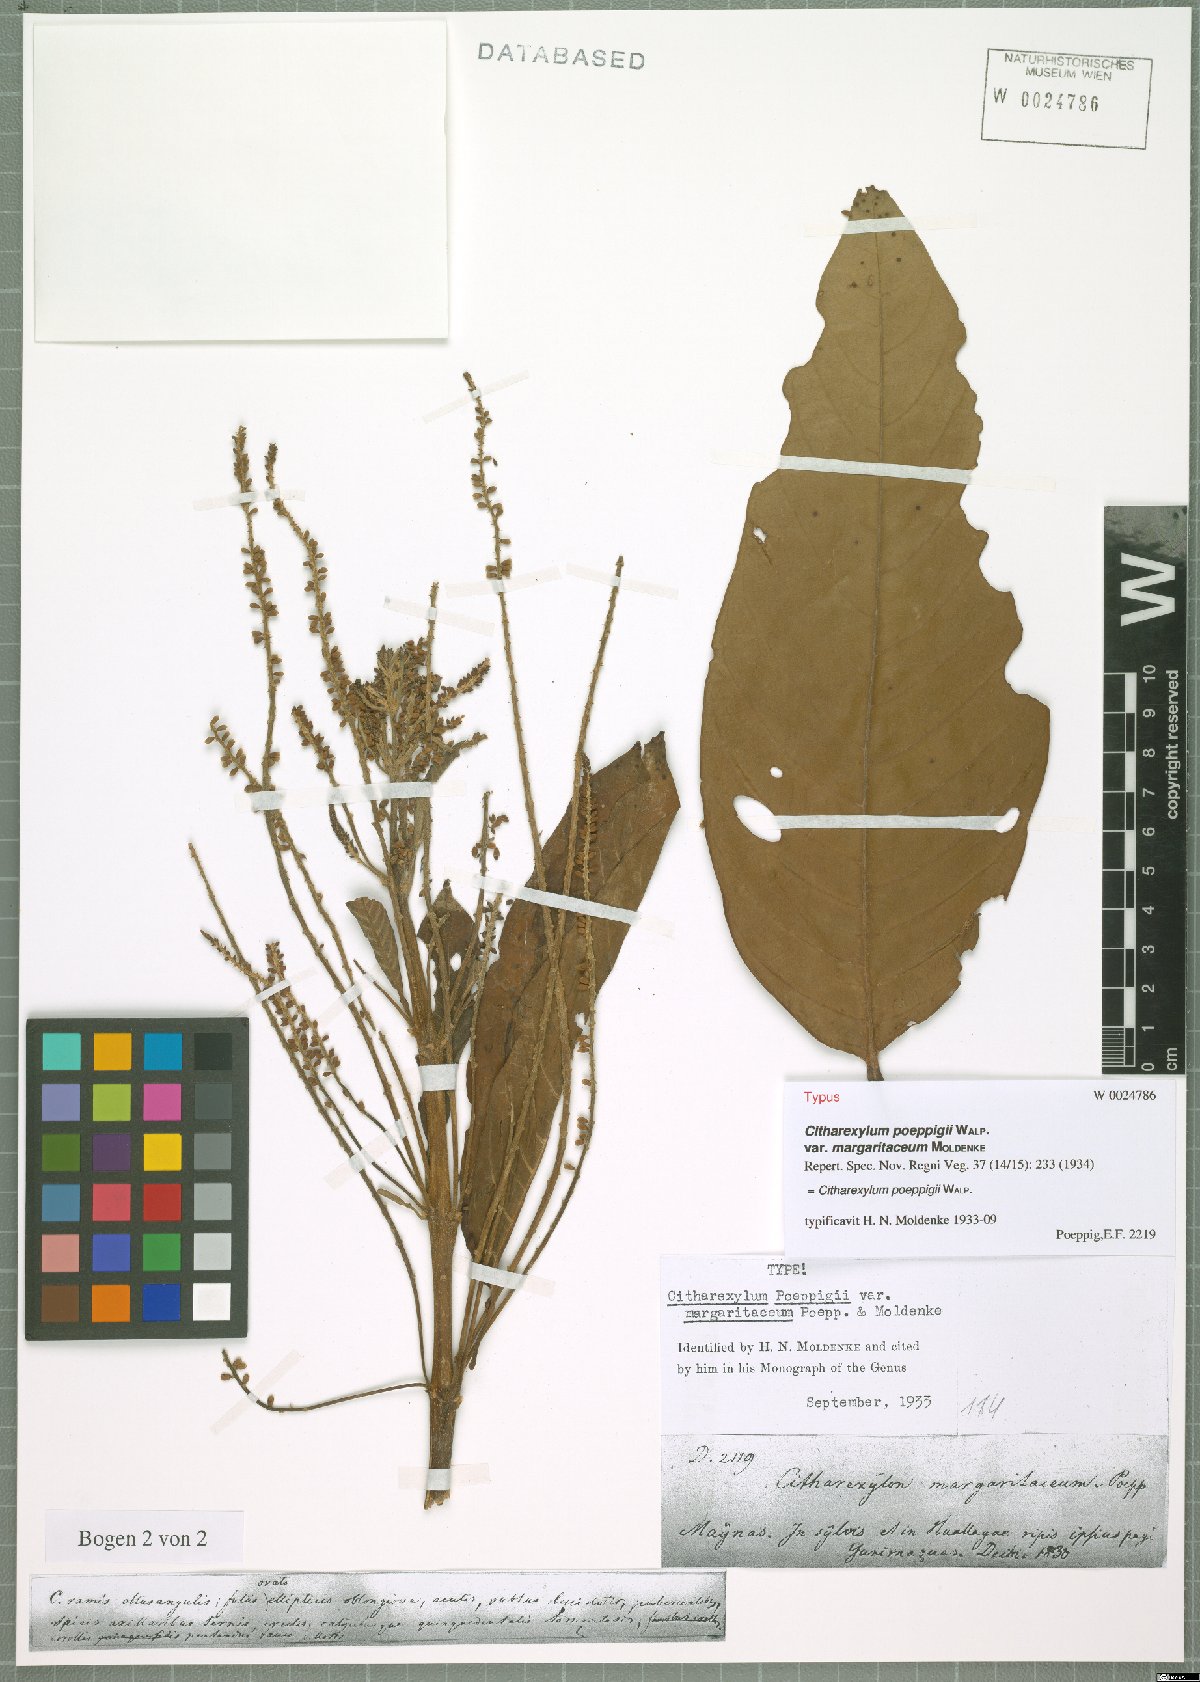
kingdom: Plantae
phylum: Tracheophyta
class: Magnoliopsida
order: Lamiales
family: Verbenaceae
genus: Citharexylum
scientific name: Citharexylum poeppigii
